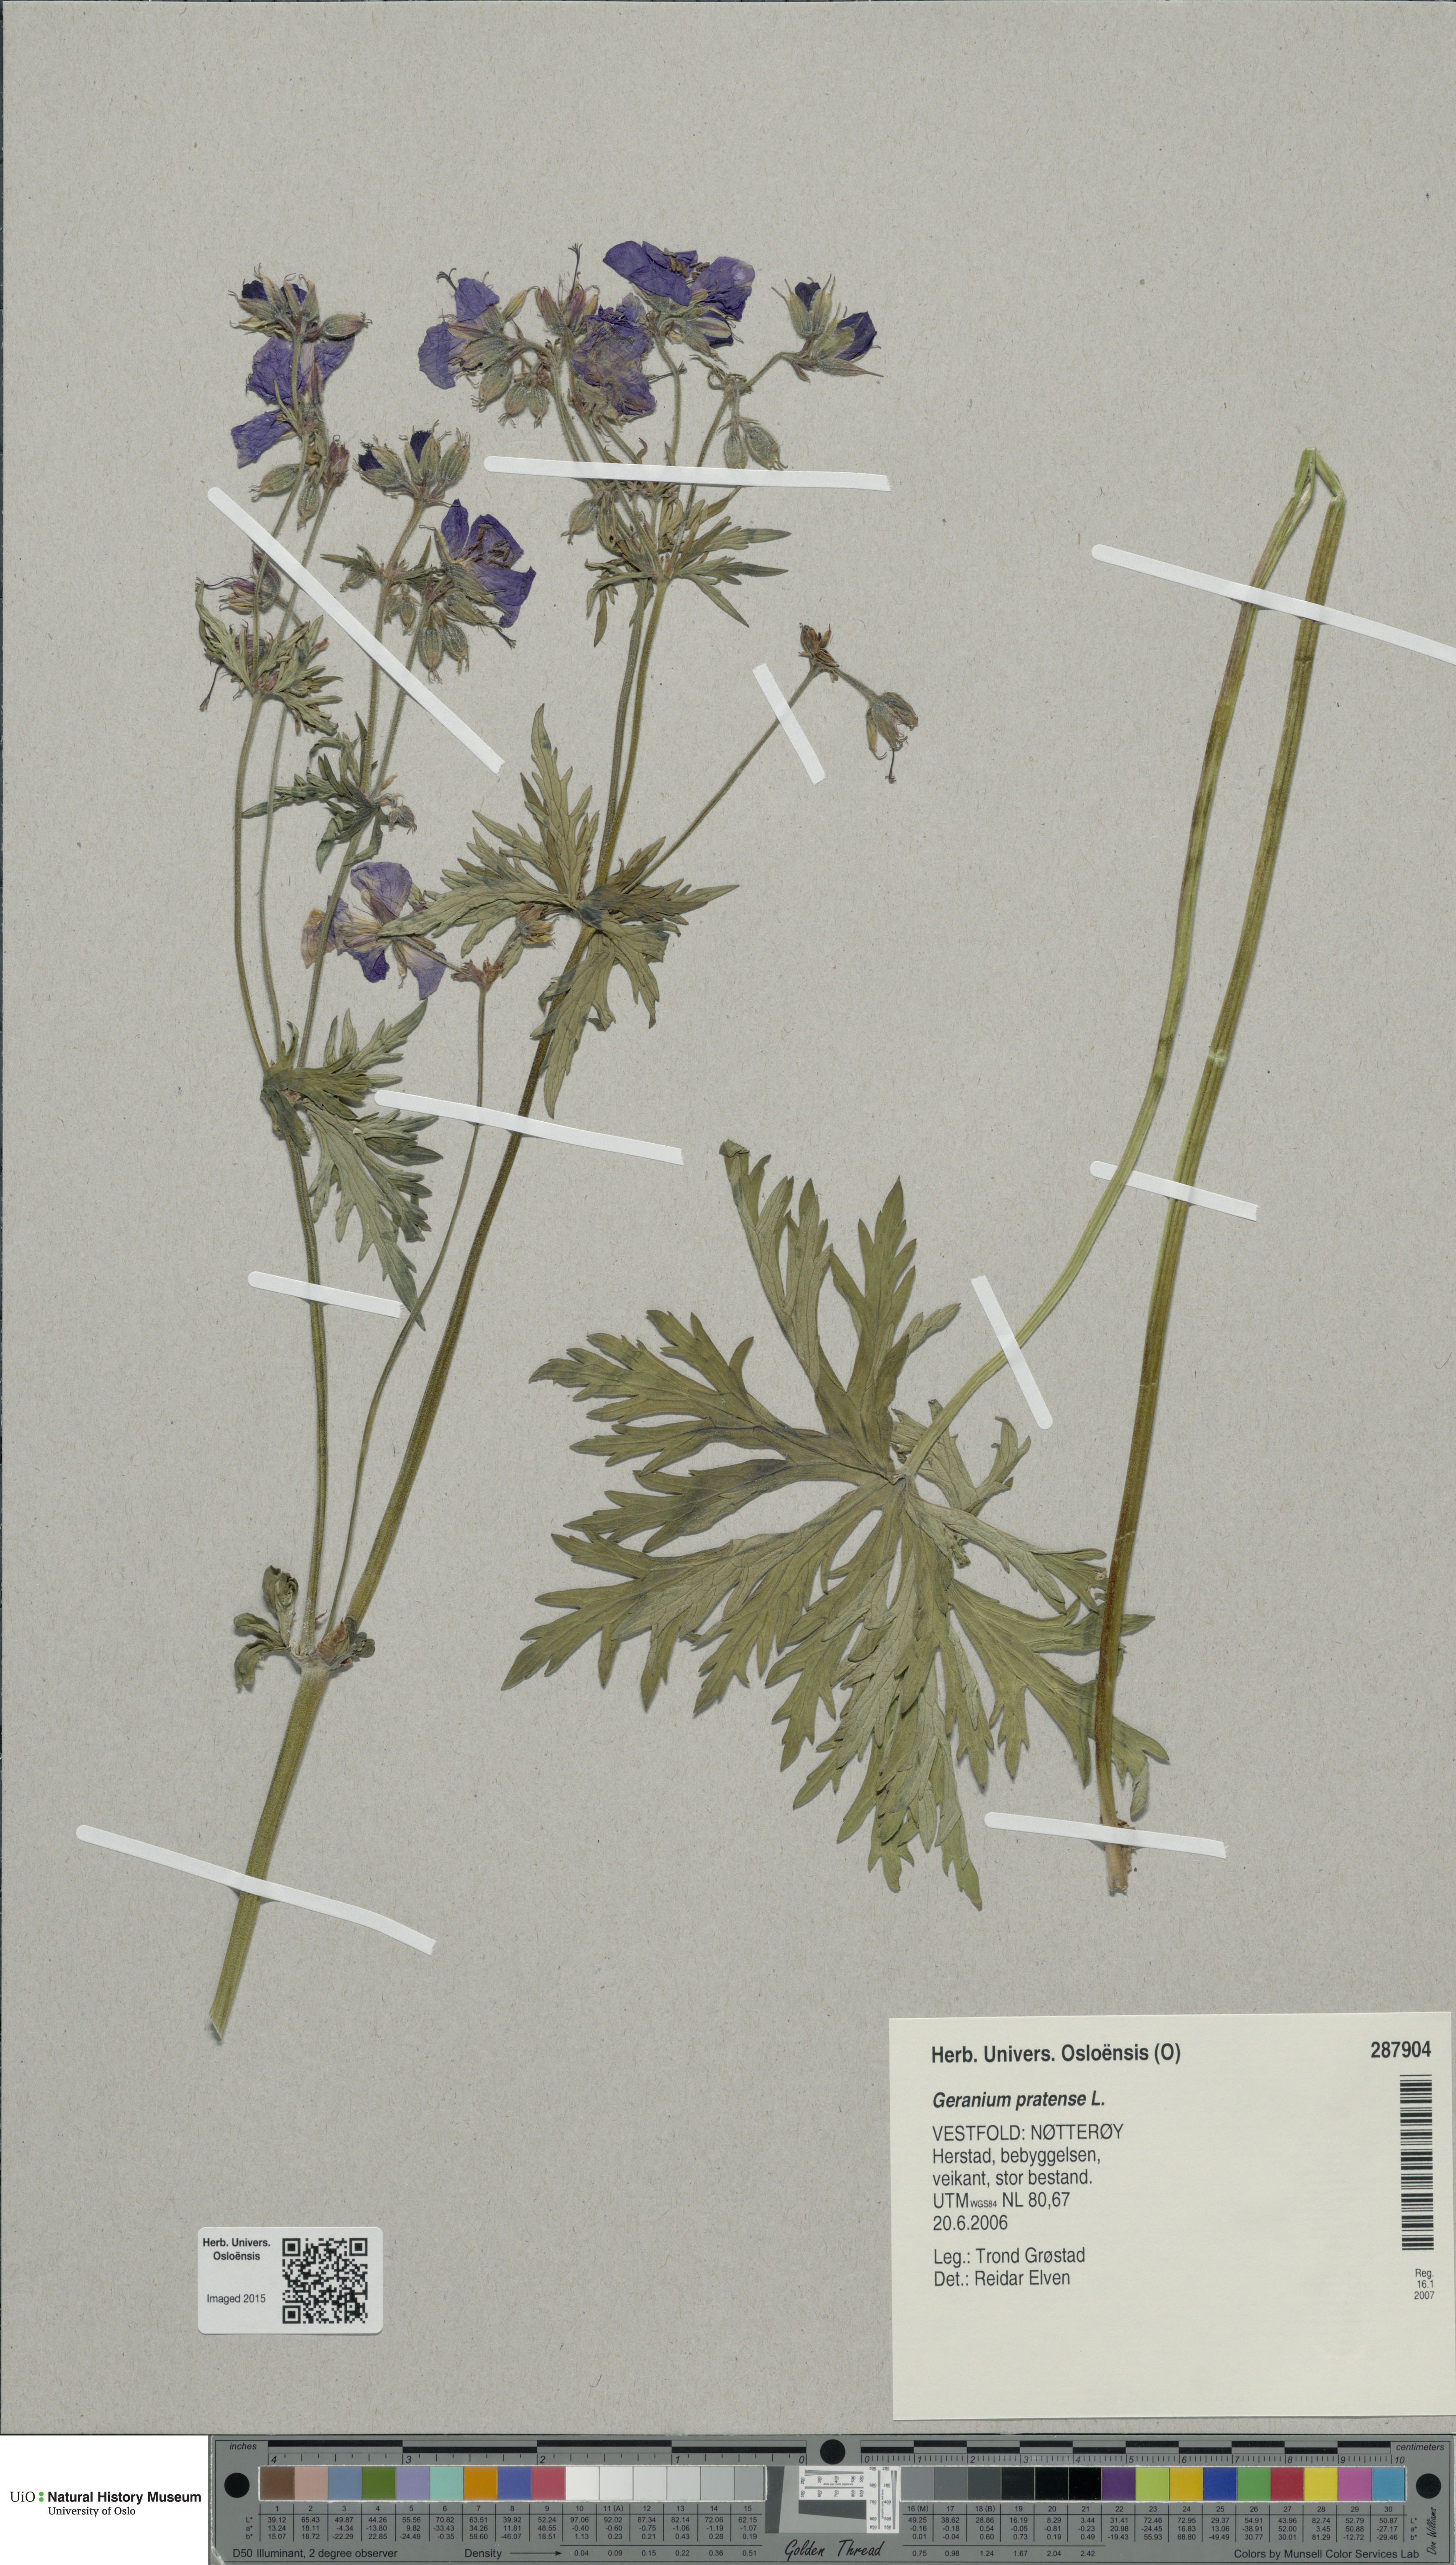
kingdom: Plantae
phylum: Tracheophyta
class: Magnoliopsida
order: Geraniales
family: Geraniaceae
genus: Geranium
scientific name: Geranium pratense
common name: Meadow crane's-bill
